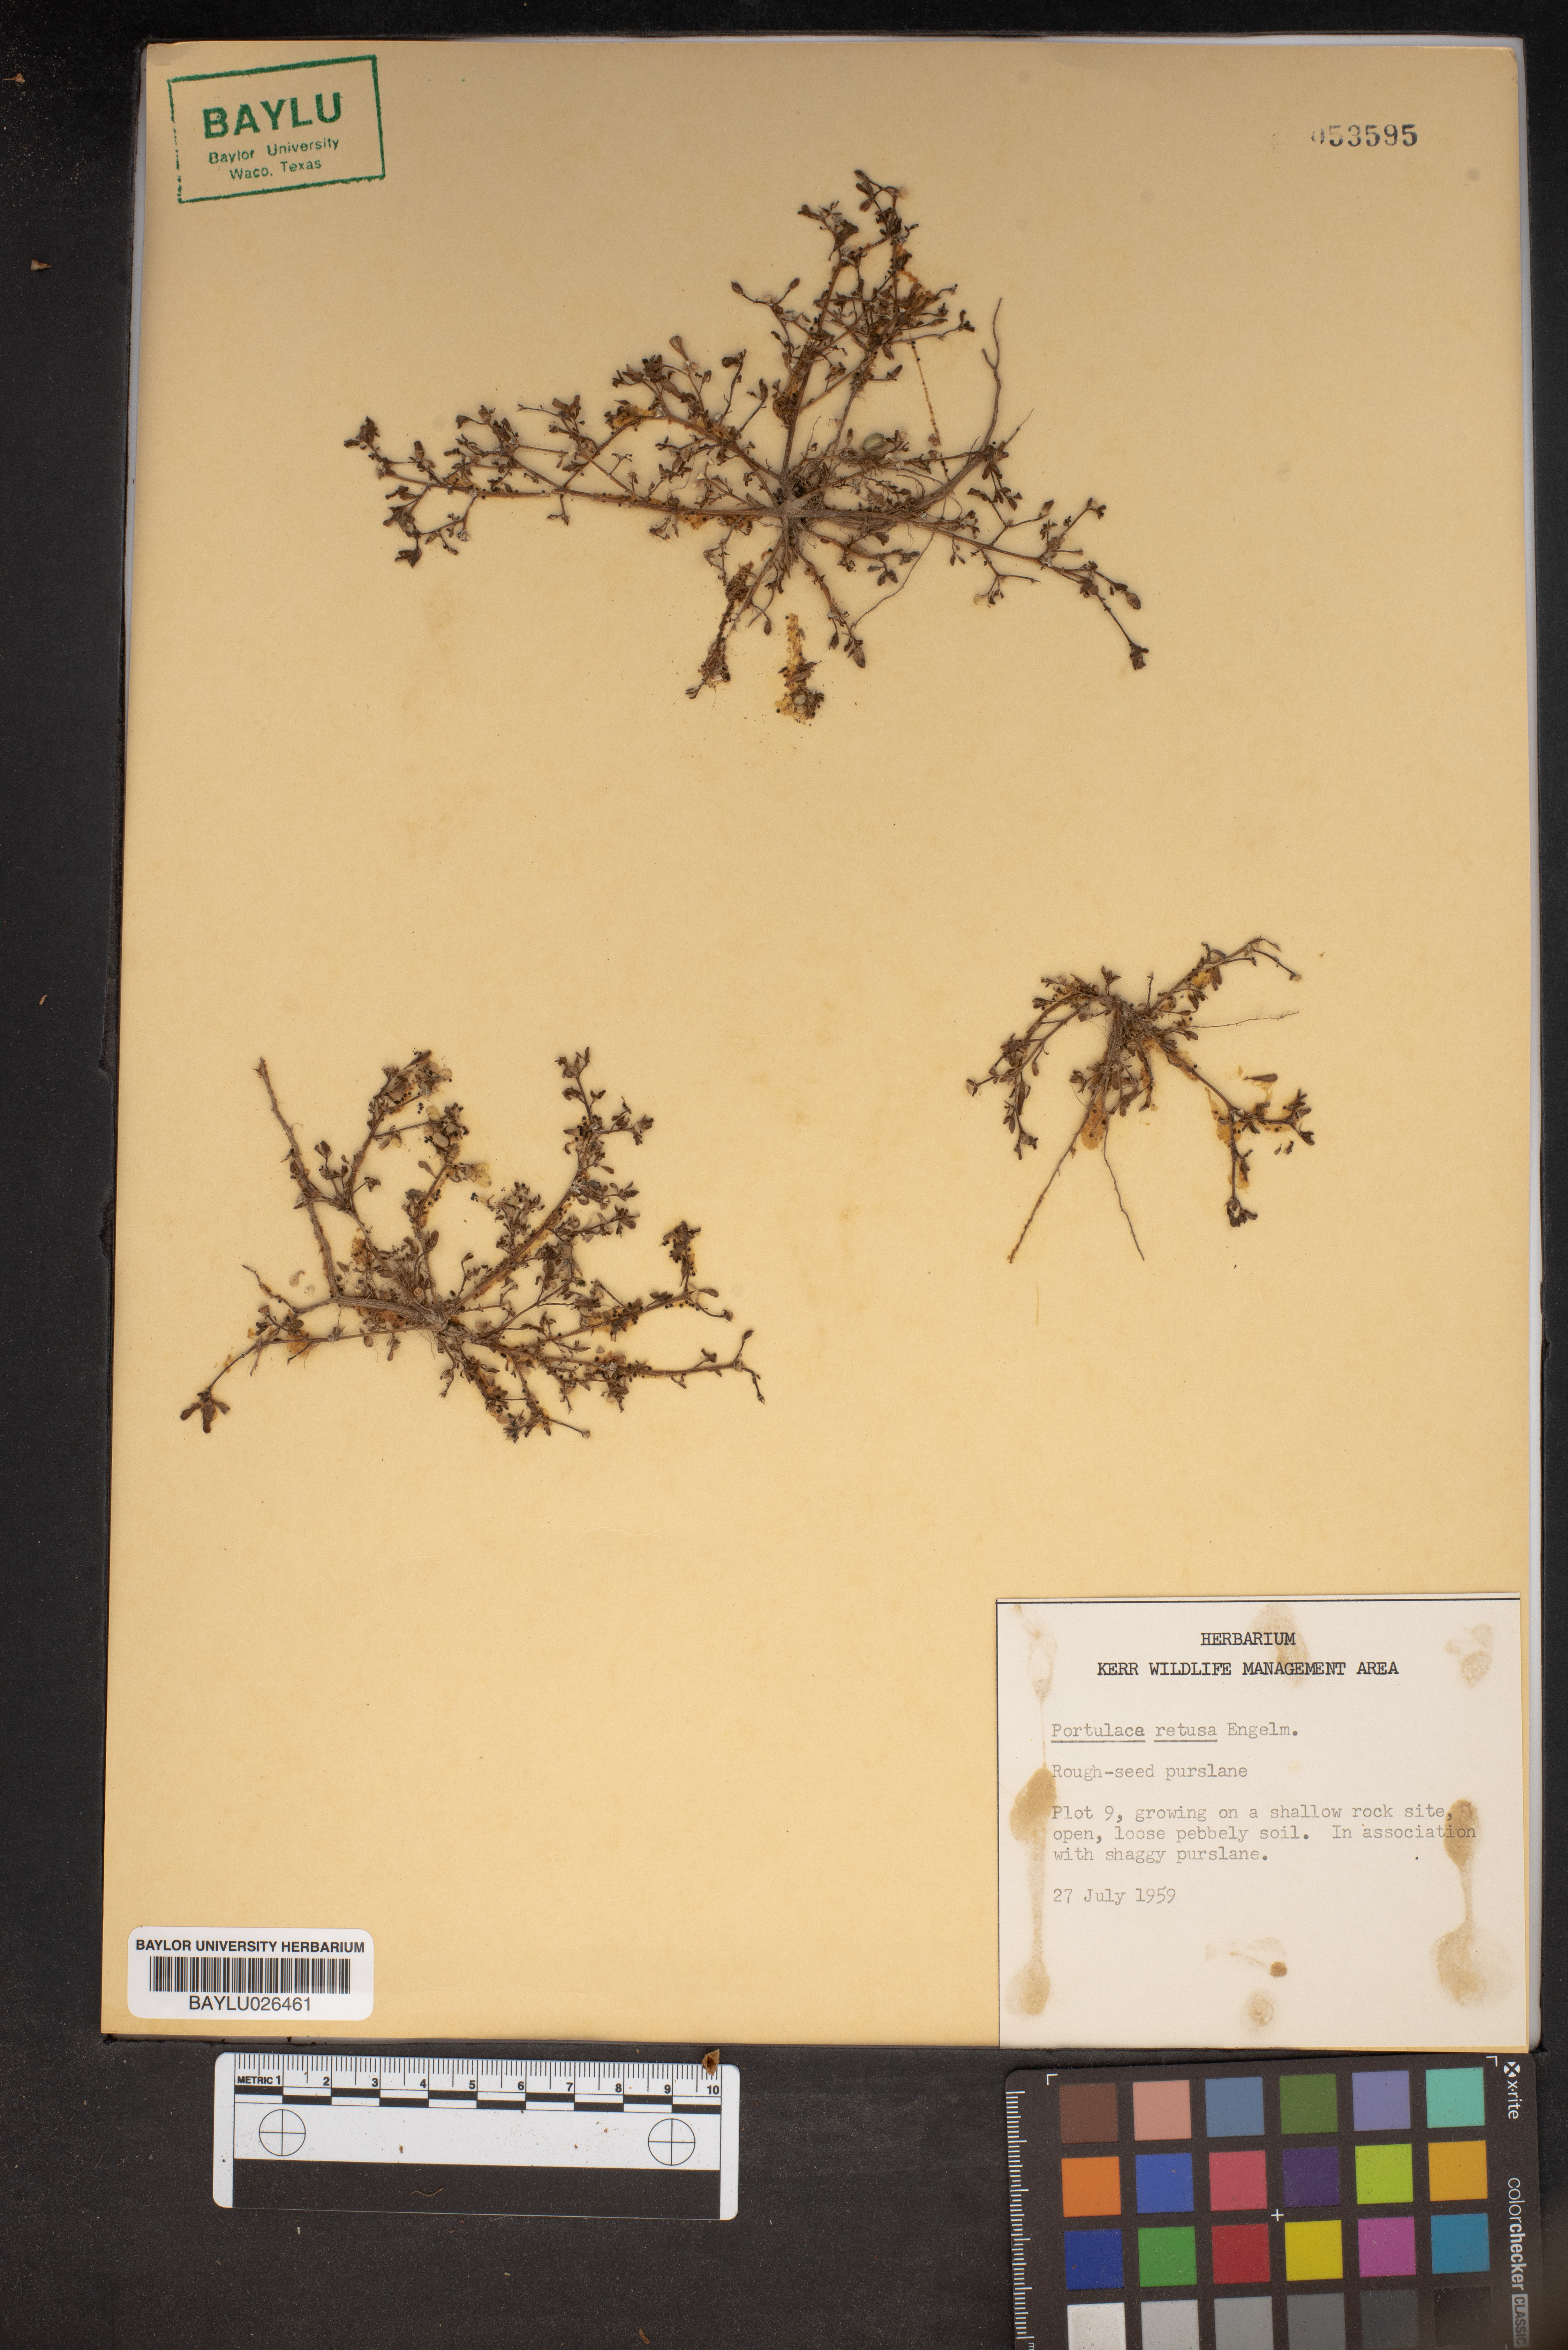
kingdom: Plantae
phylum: Tracheophyta
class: Magnoliopsida
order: Caryophyllales
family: Portulacaceae
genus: Portulaca
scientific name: Portulaca oleracea
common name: Common purslane
